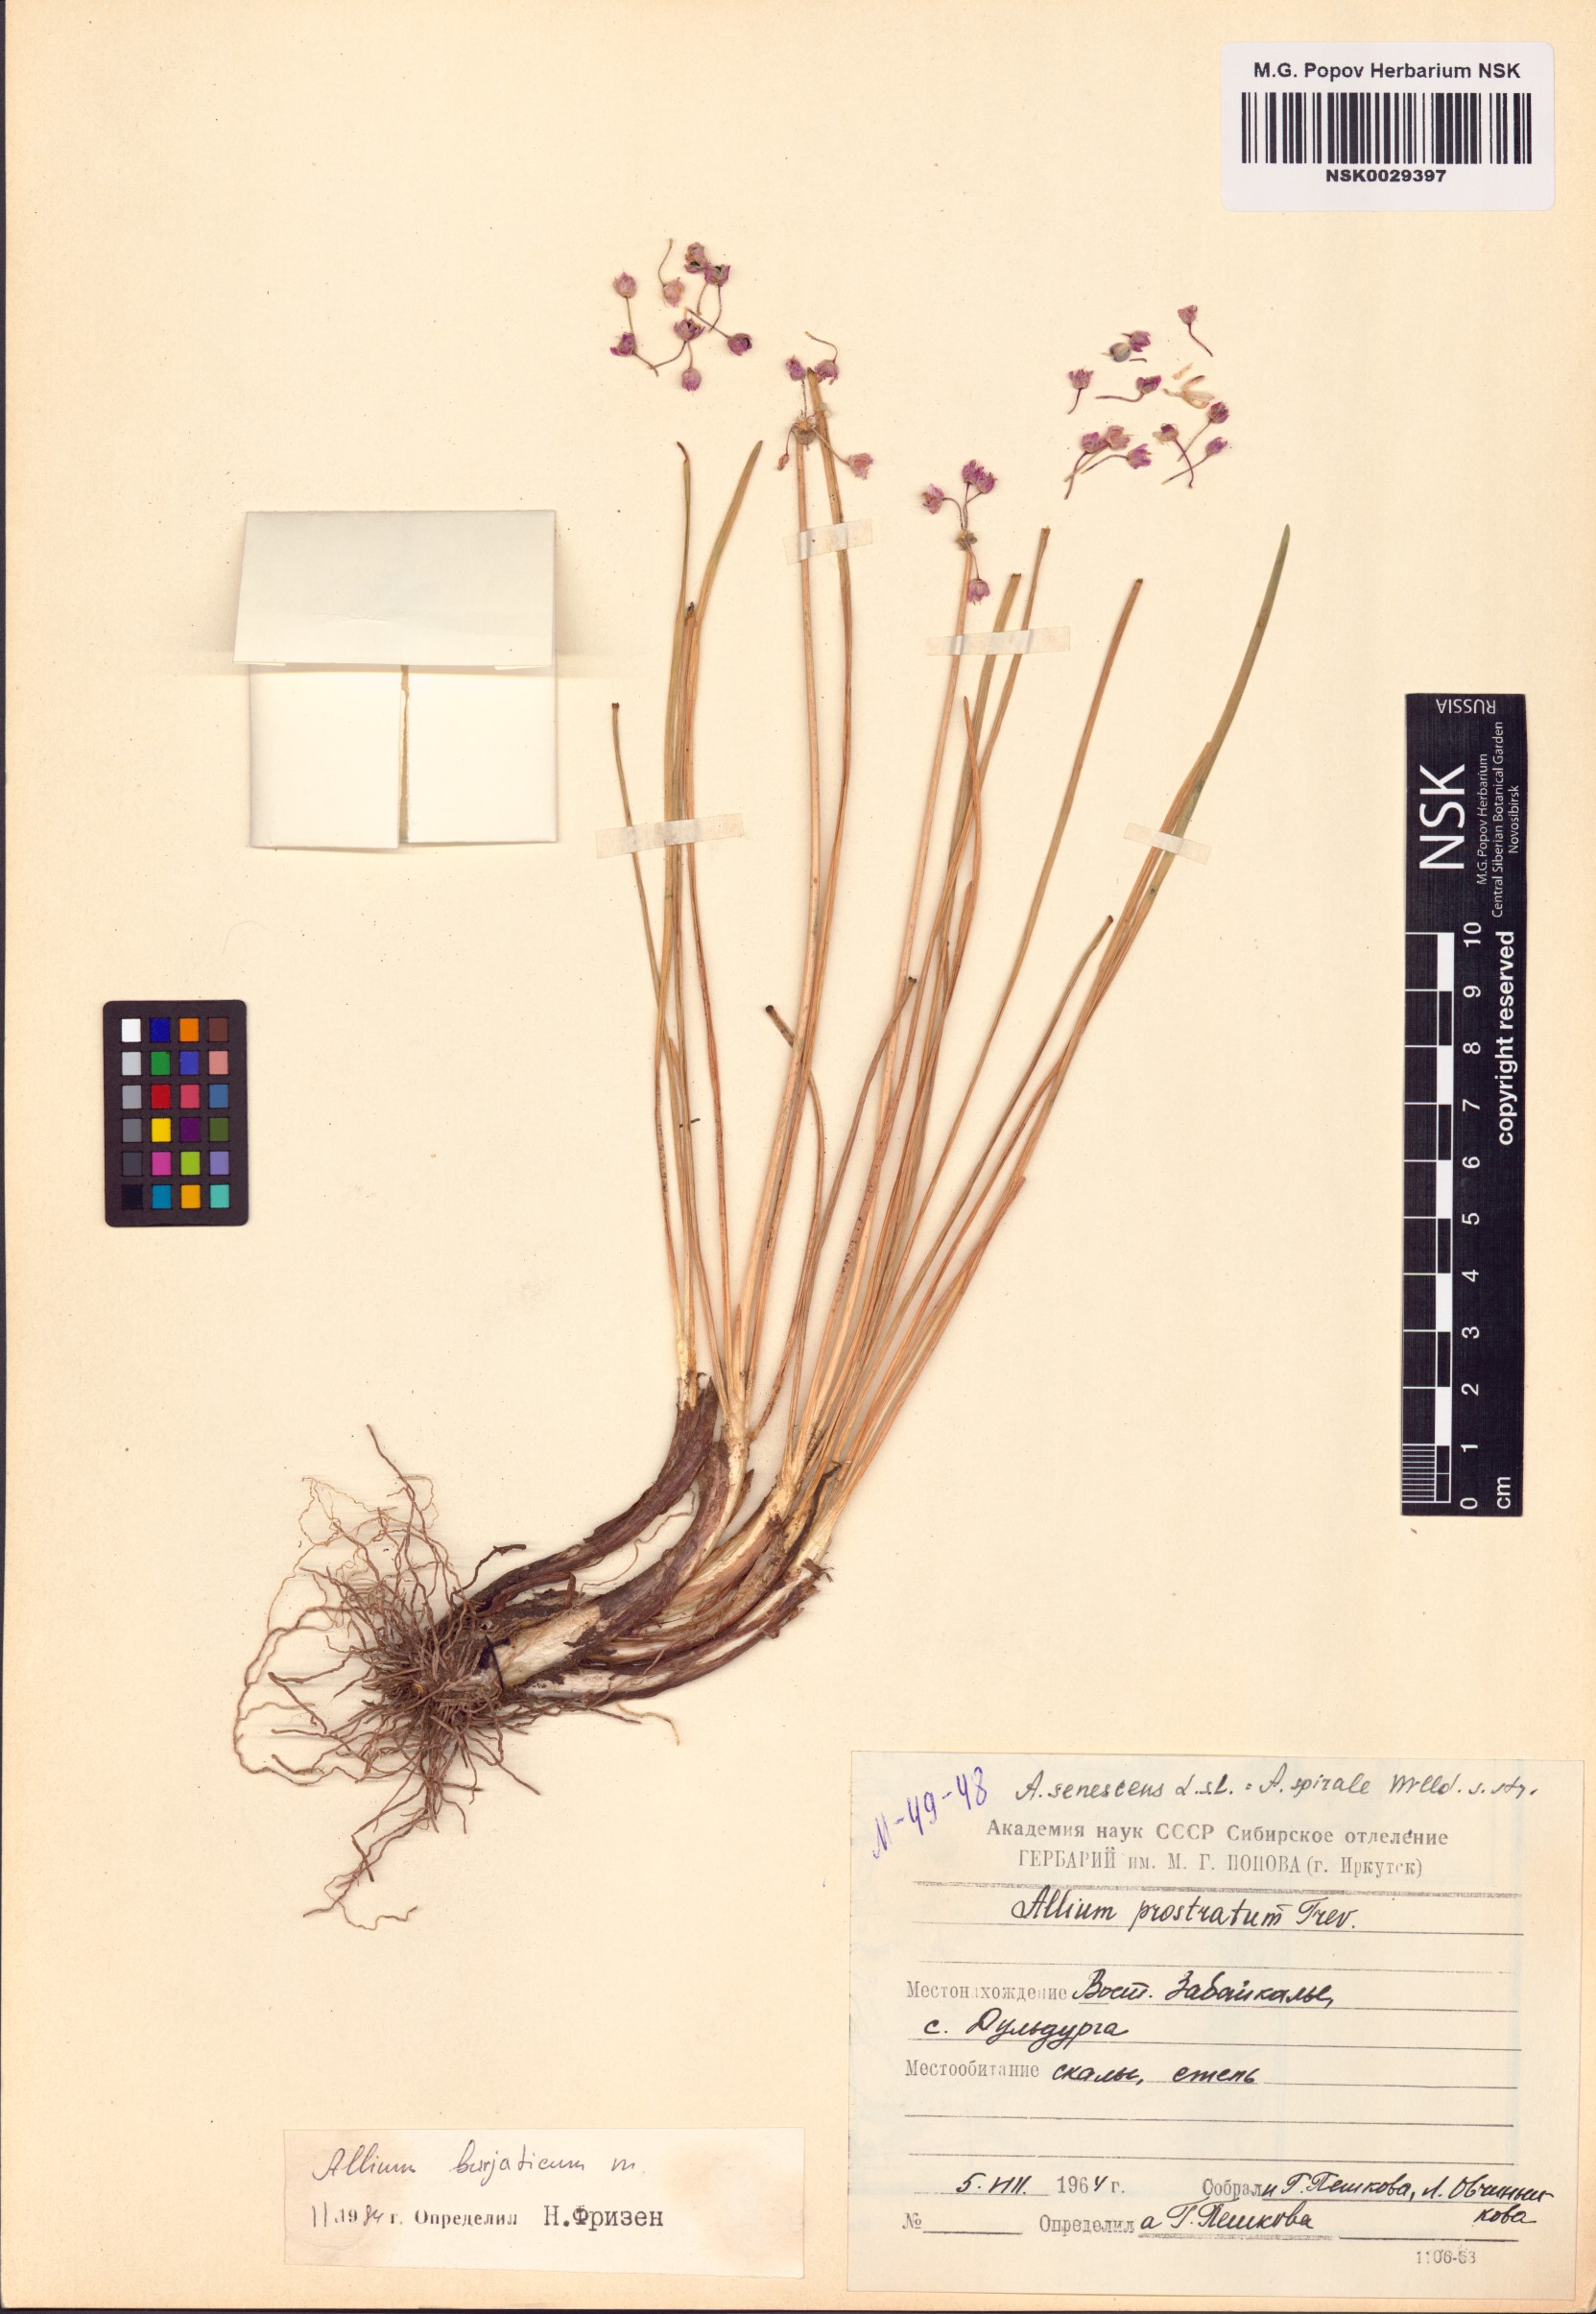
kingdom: Plantae
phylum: Tracheophyta
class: Liliopsida
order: Asparagales
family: Amaryllidaceae
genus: Allium
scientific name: Allium burjaticum
